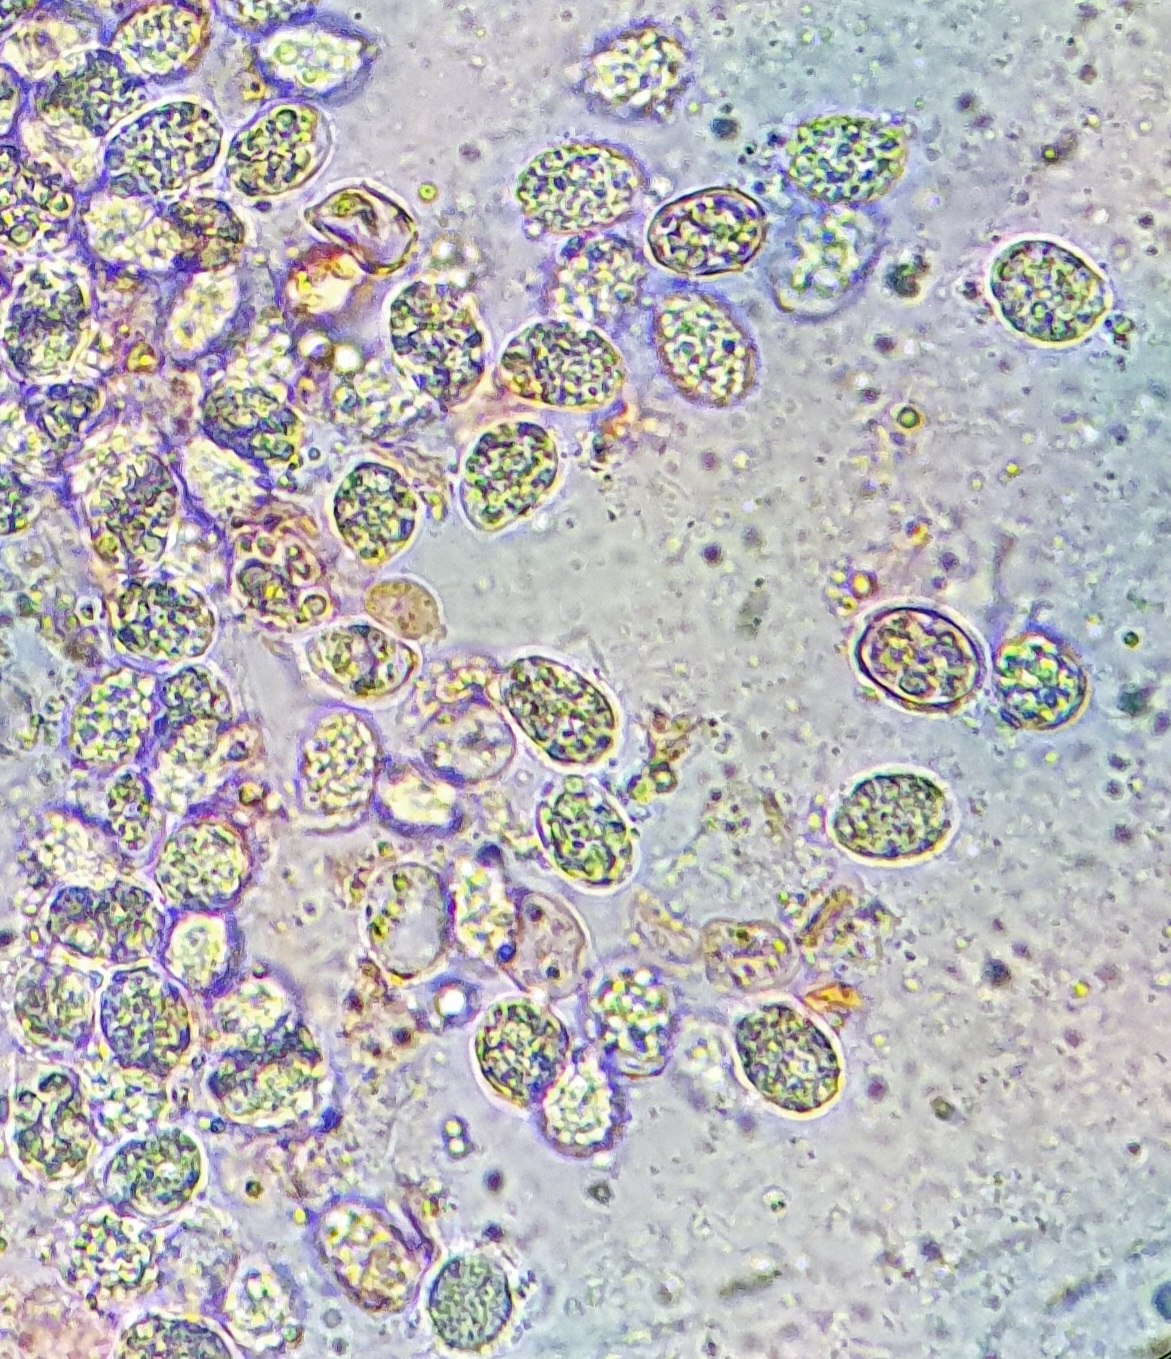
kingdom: Fungi
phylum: Basidiomycota
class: Agaricomycetes
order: Agaricales
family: Clavariaceae
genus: Clavaria
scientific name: Clavaria
